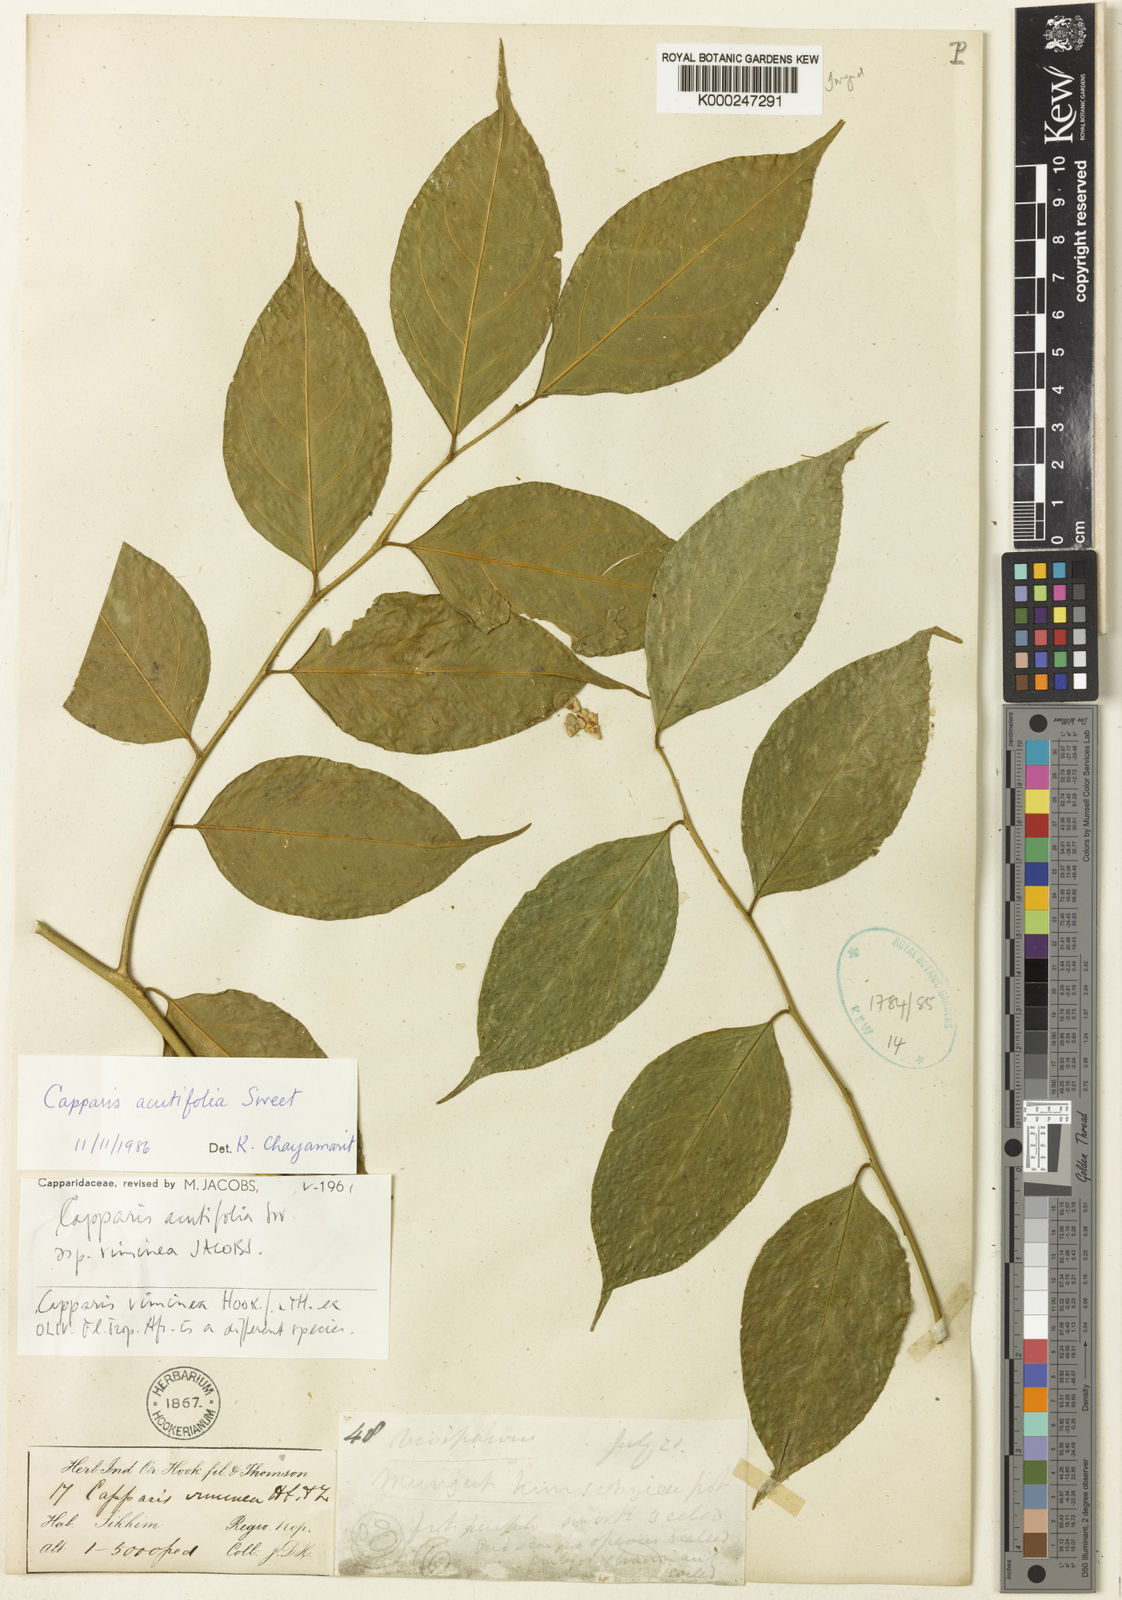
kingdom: Plantae
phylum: Tracheophyta
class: Magnoliopsida
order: Brassicales
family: Capparaceae
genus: Capparis
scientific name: Capparis acutifolia
